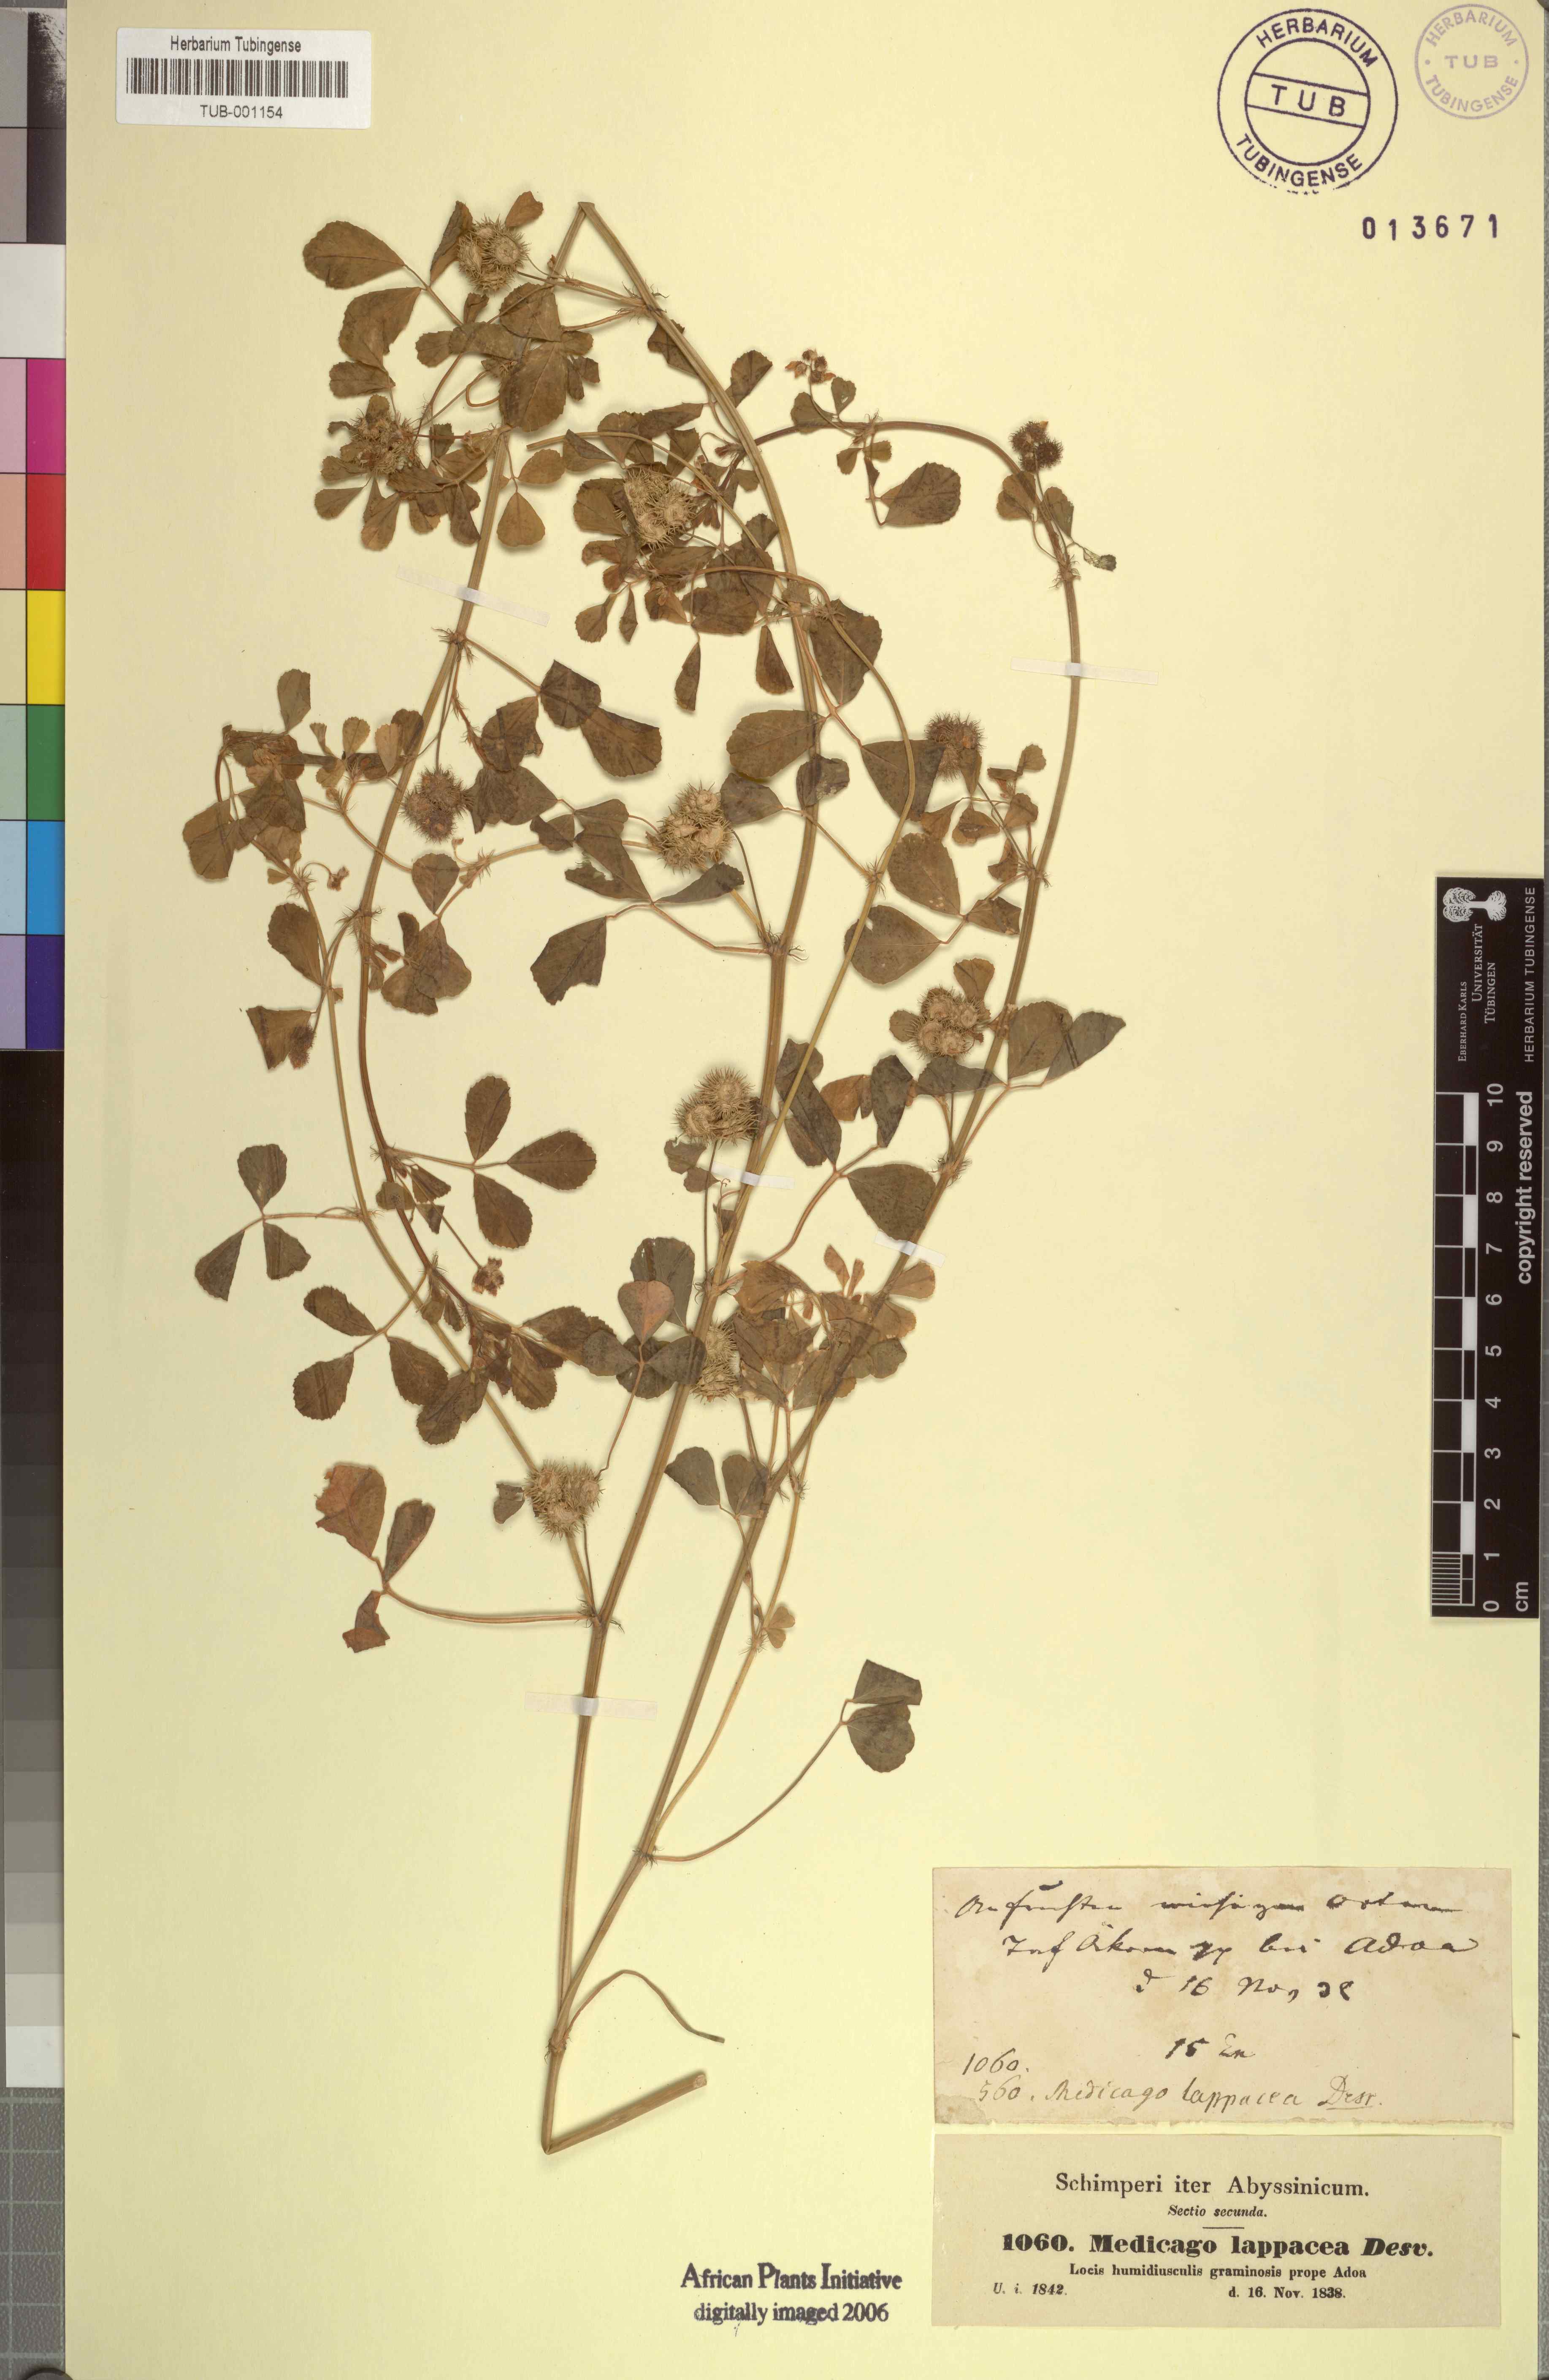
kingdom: Plantae
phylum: Tracheophyta
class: Magnoliopsida
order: Fabales
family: Fabaceae
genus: Medicago
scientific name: Medicago polymorpha
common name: Burclover
